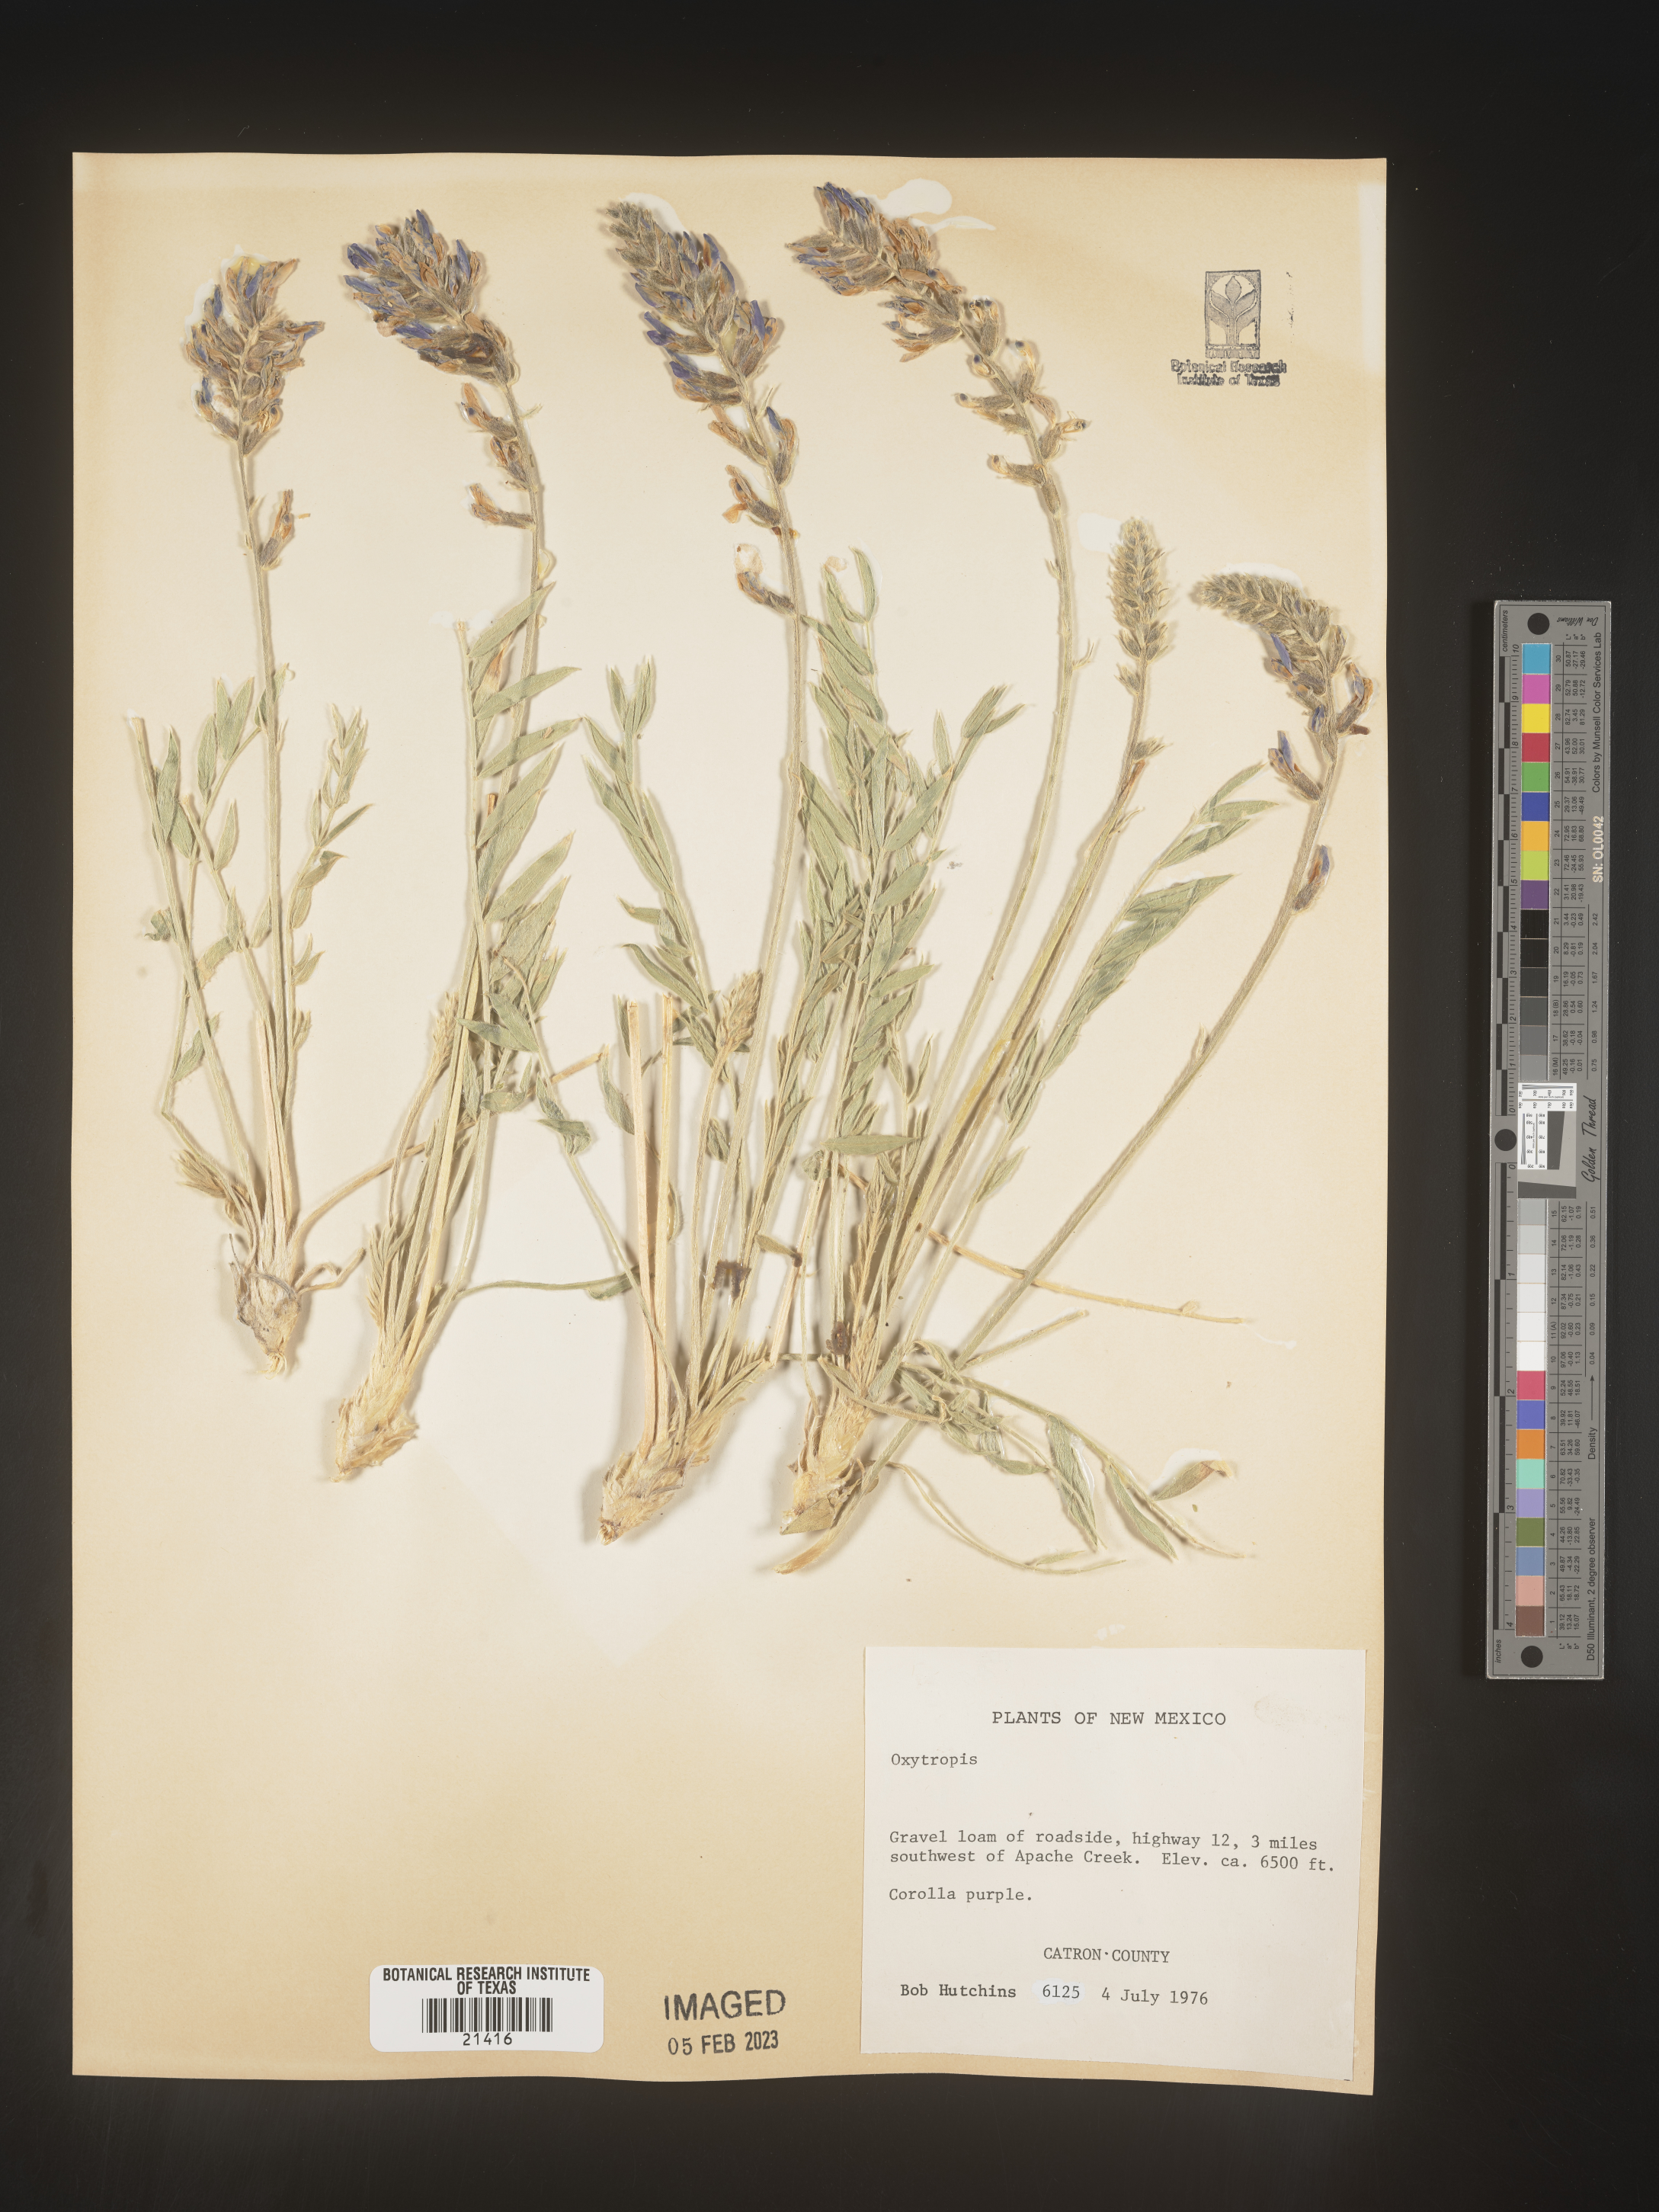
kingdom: Plantae
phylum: Tracheophyta
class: Magnoliopsida
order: Fabales
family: Fabaceae
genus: Oxytropis
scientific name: Oxytropis
